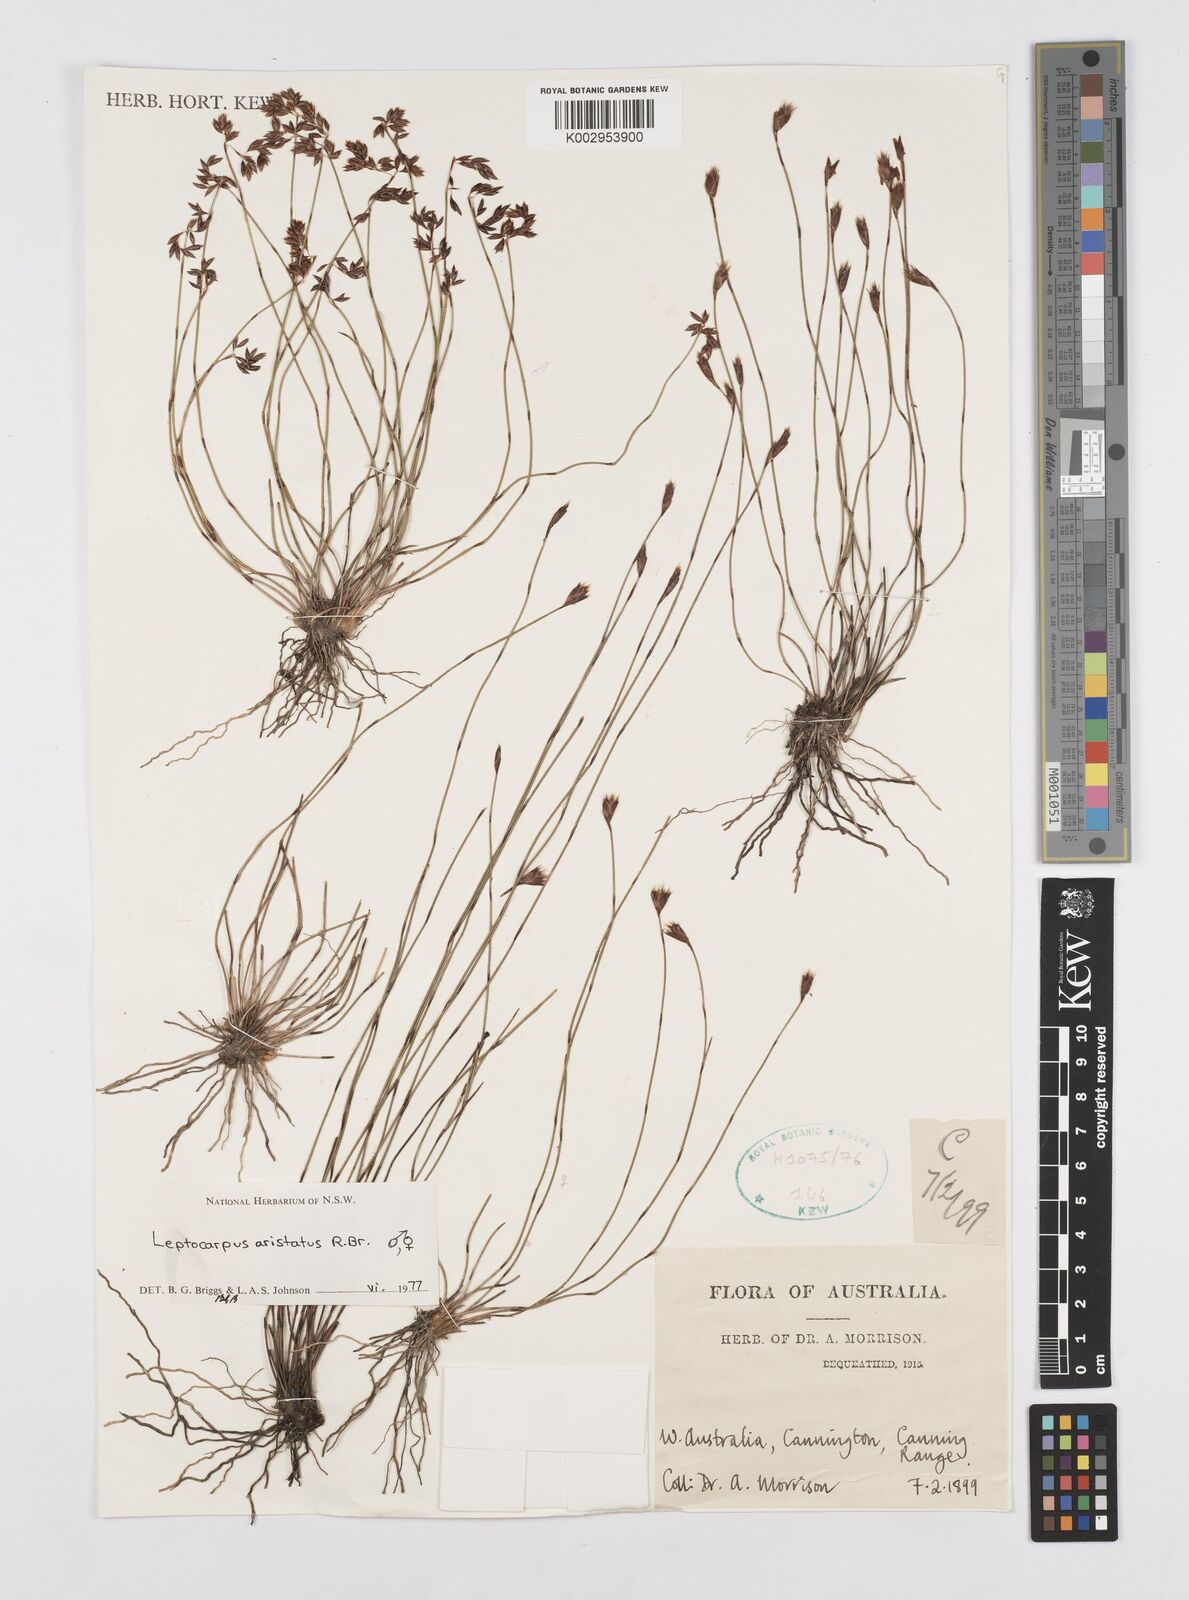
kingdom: Plantae
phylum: Tracheophyta
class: Liliopsida
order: Poales
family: Restionaceae
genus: Chaetanthus
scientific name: Chaetanthus aristatus
